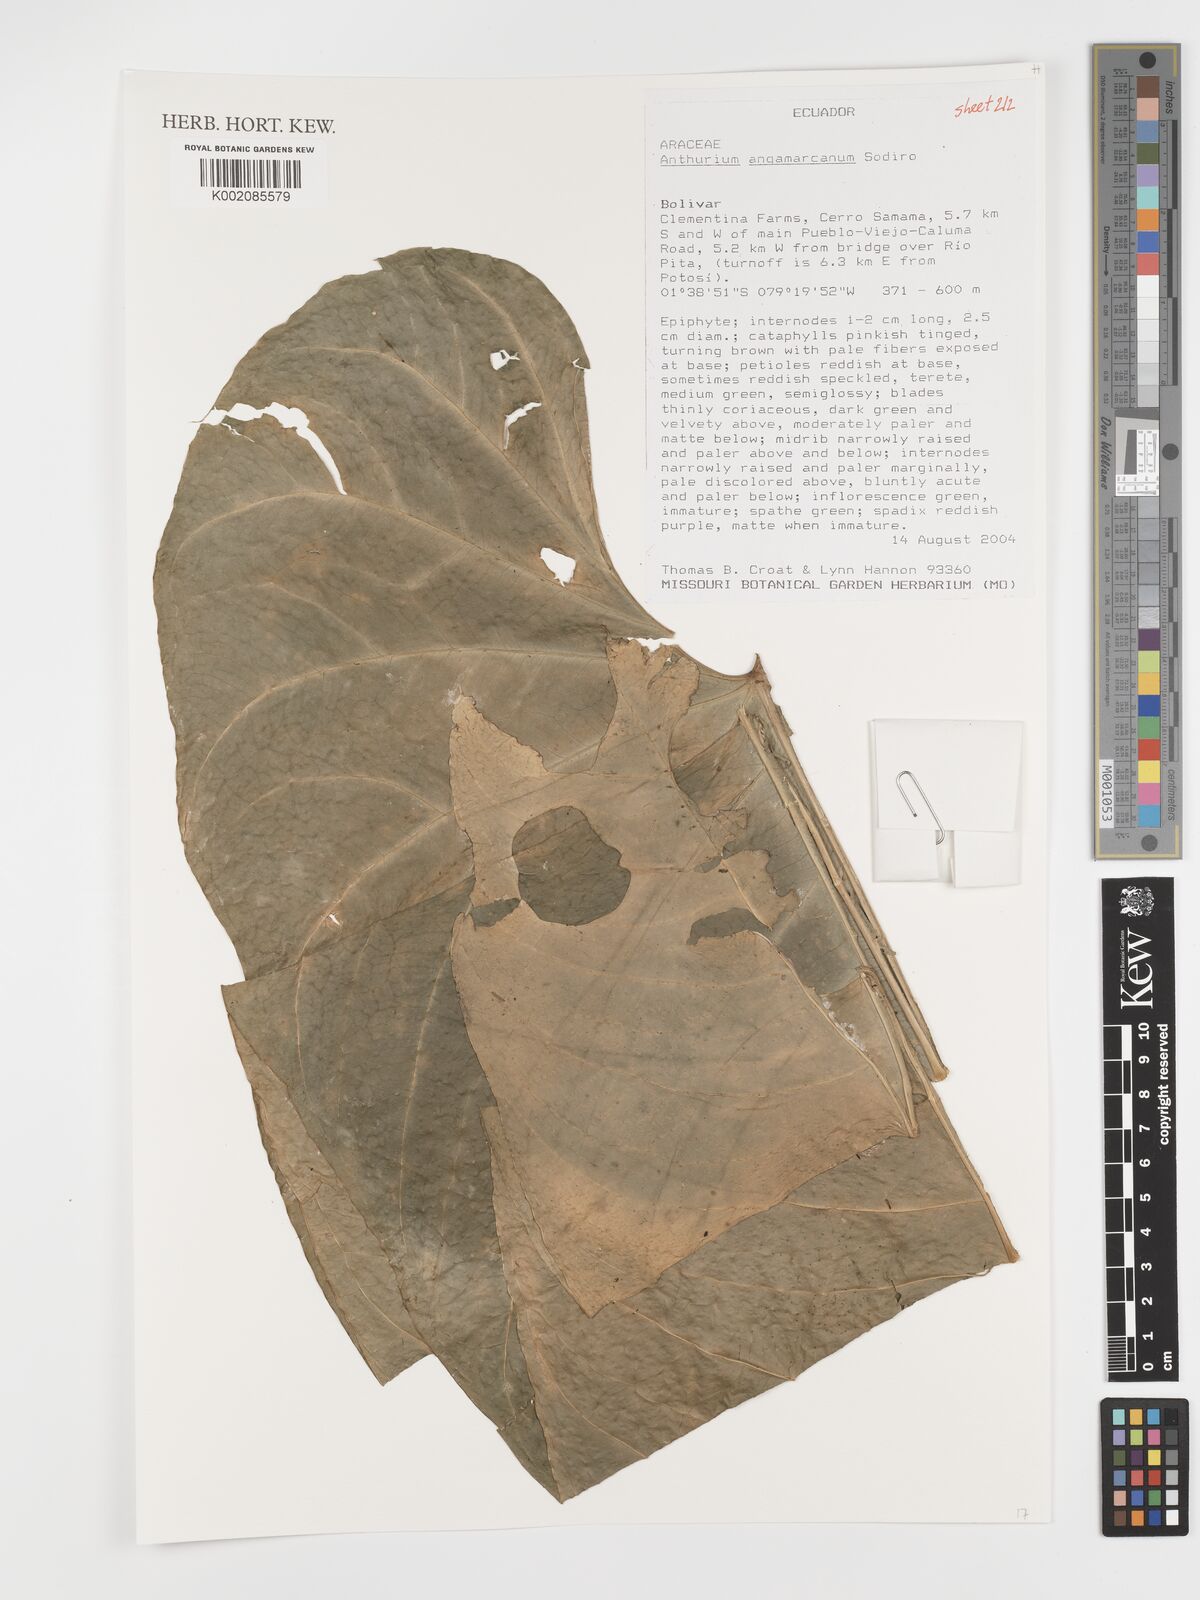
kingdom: Plantae
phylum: Tracheophyta
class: Liliopsida
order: Alismatales
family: Araceae
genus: Anthurium
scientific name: Anthurium dolichostachyum
